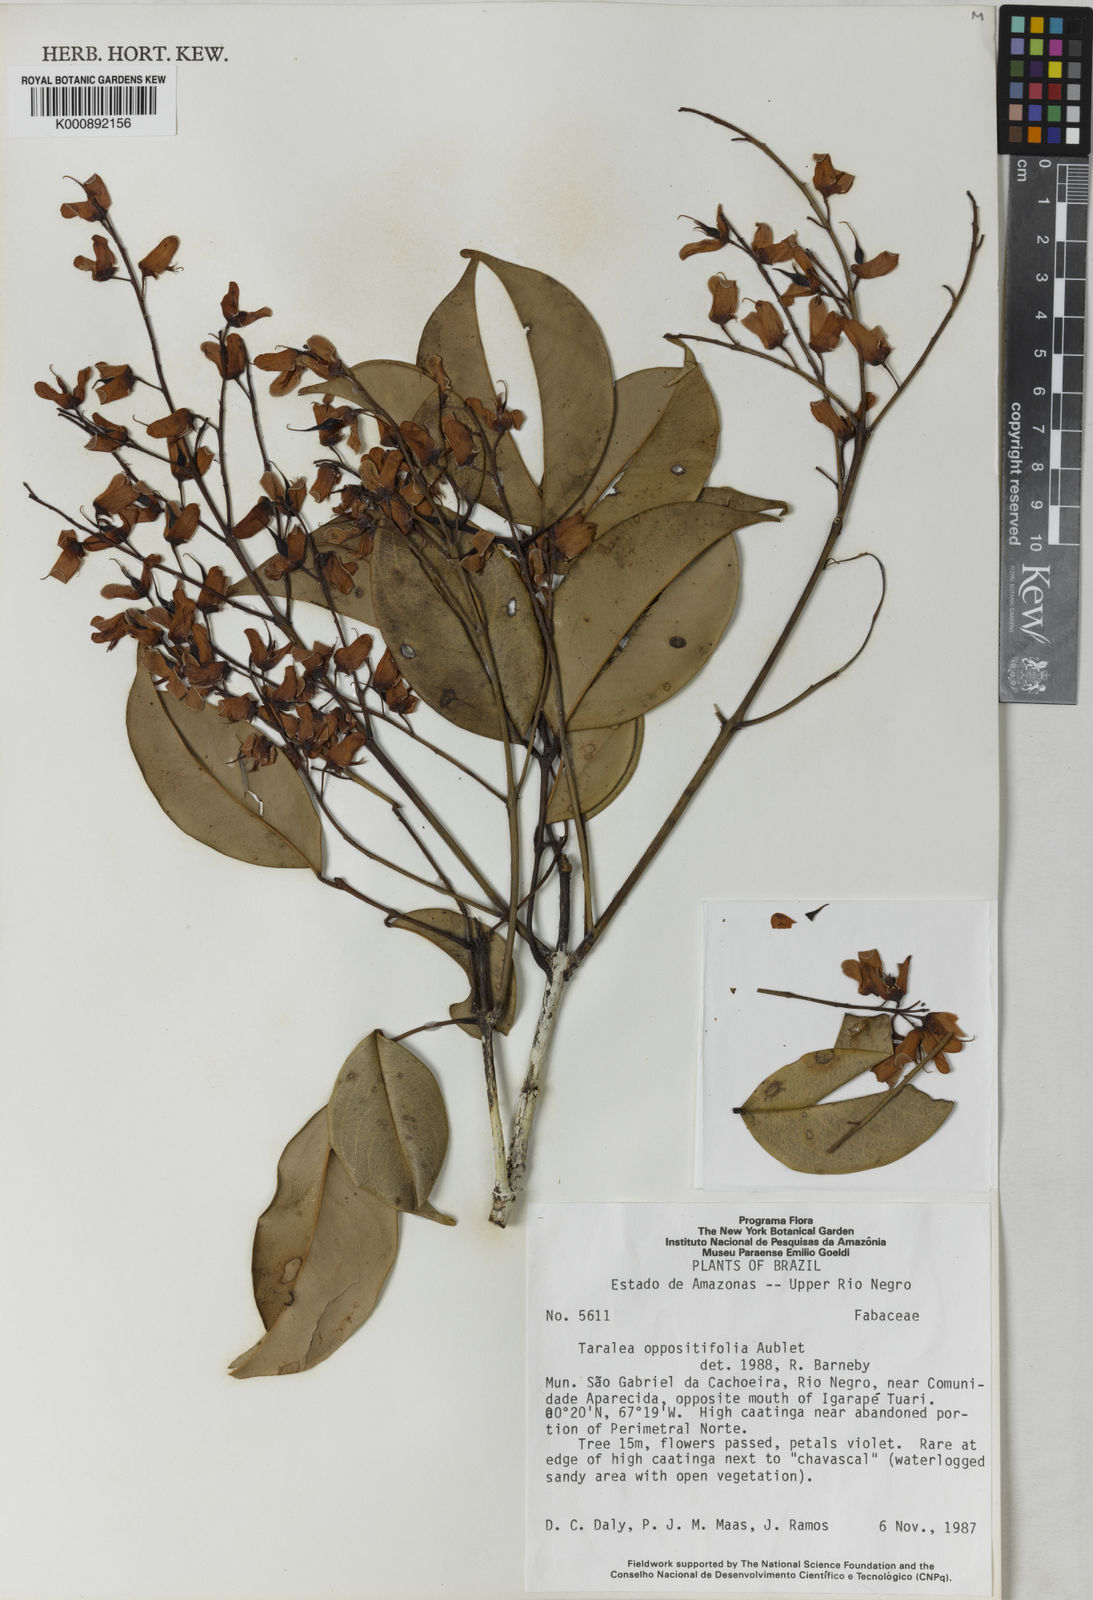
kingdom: Plantae
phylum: Tracheophyta
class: Magnoliopsida
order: Fabales
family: Fabaceae
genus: Taralea
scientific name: Taralea oppositifolia
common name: Tonka
